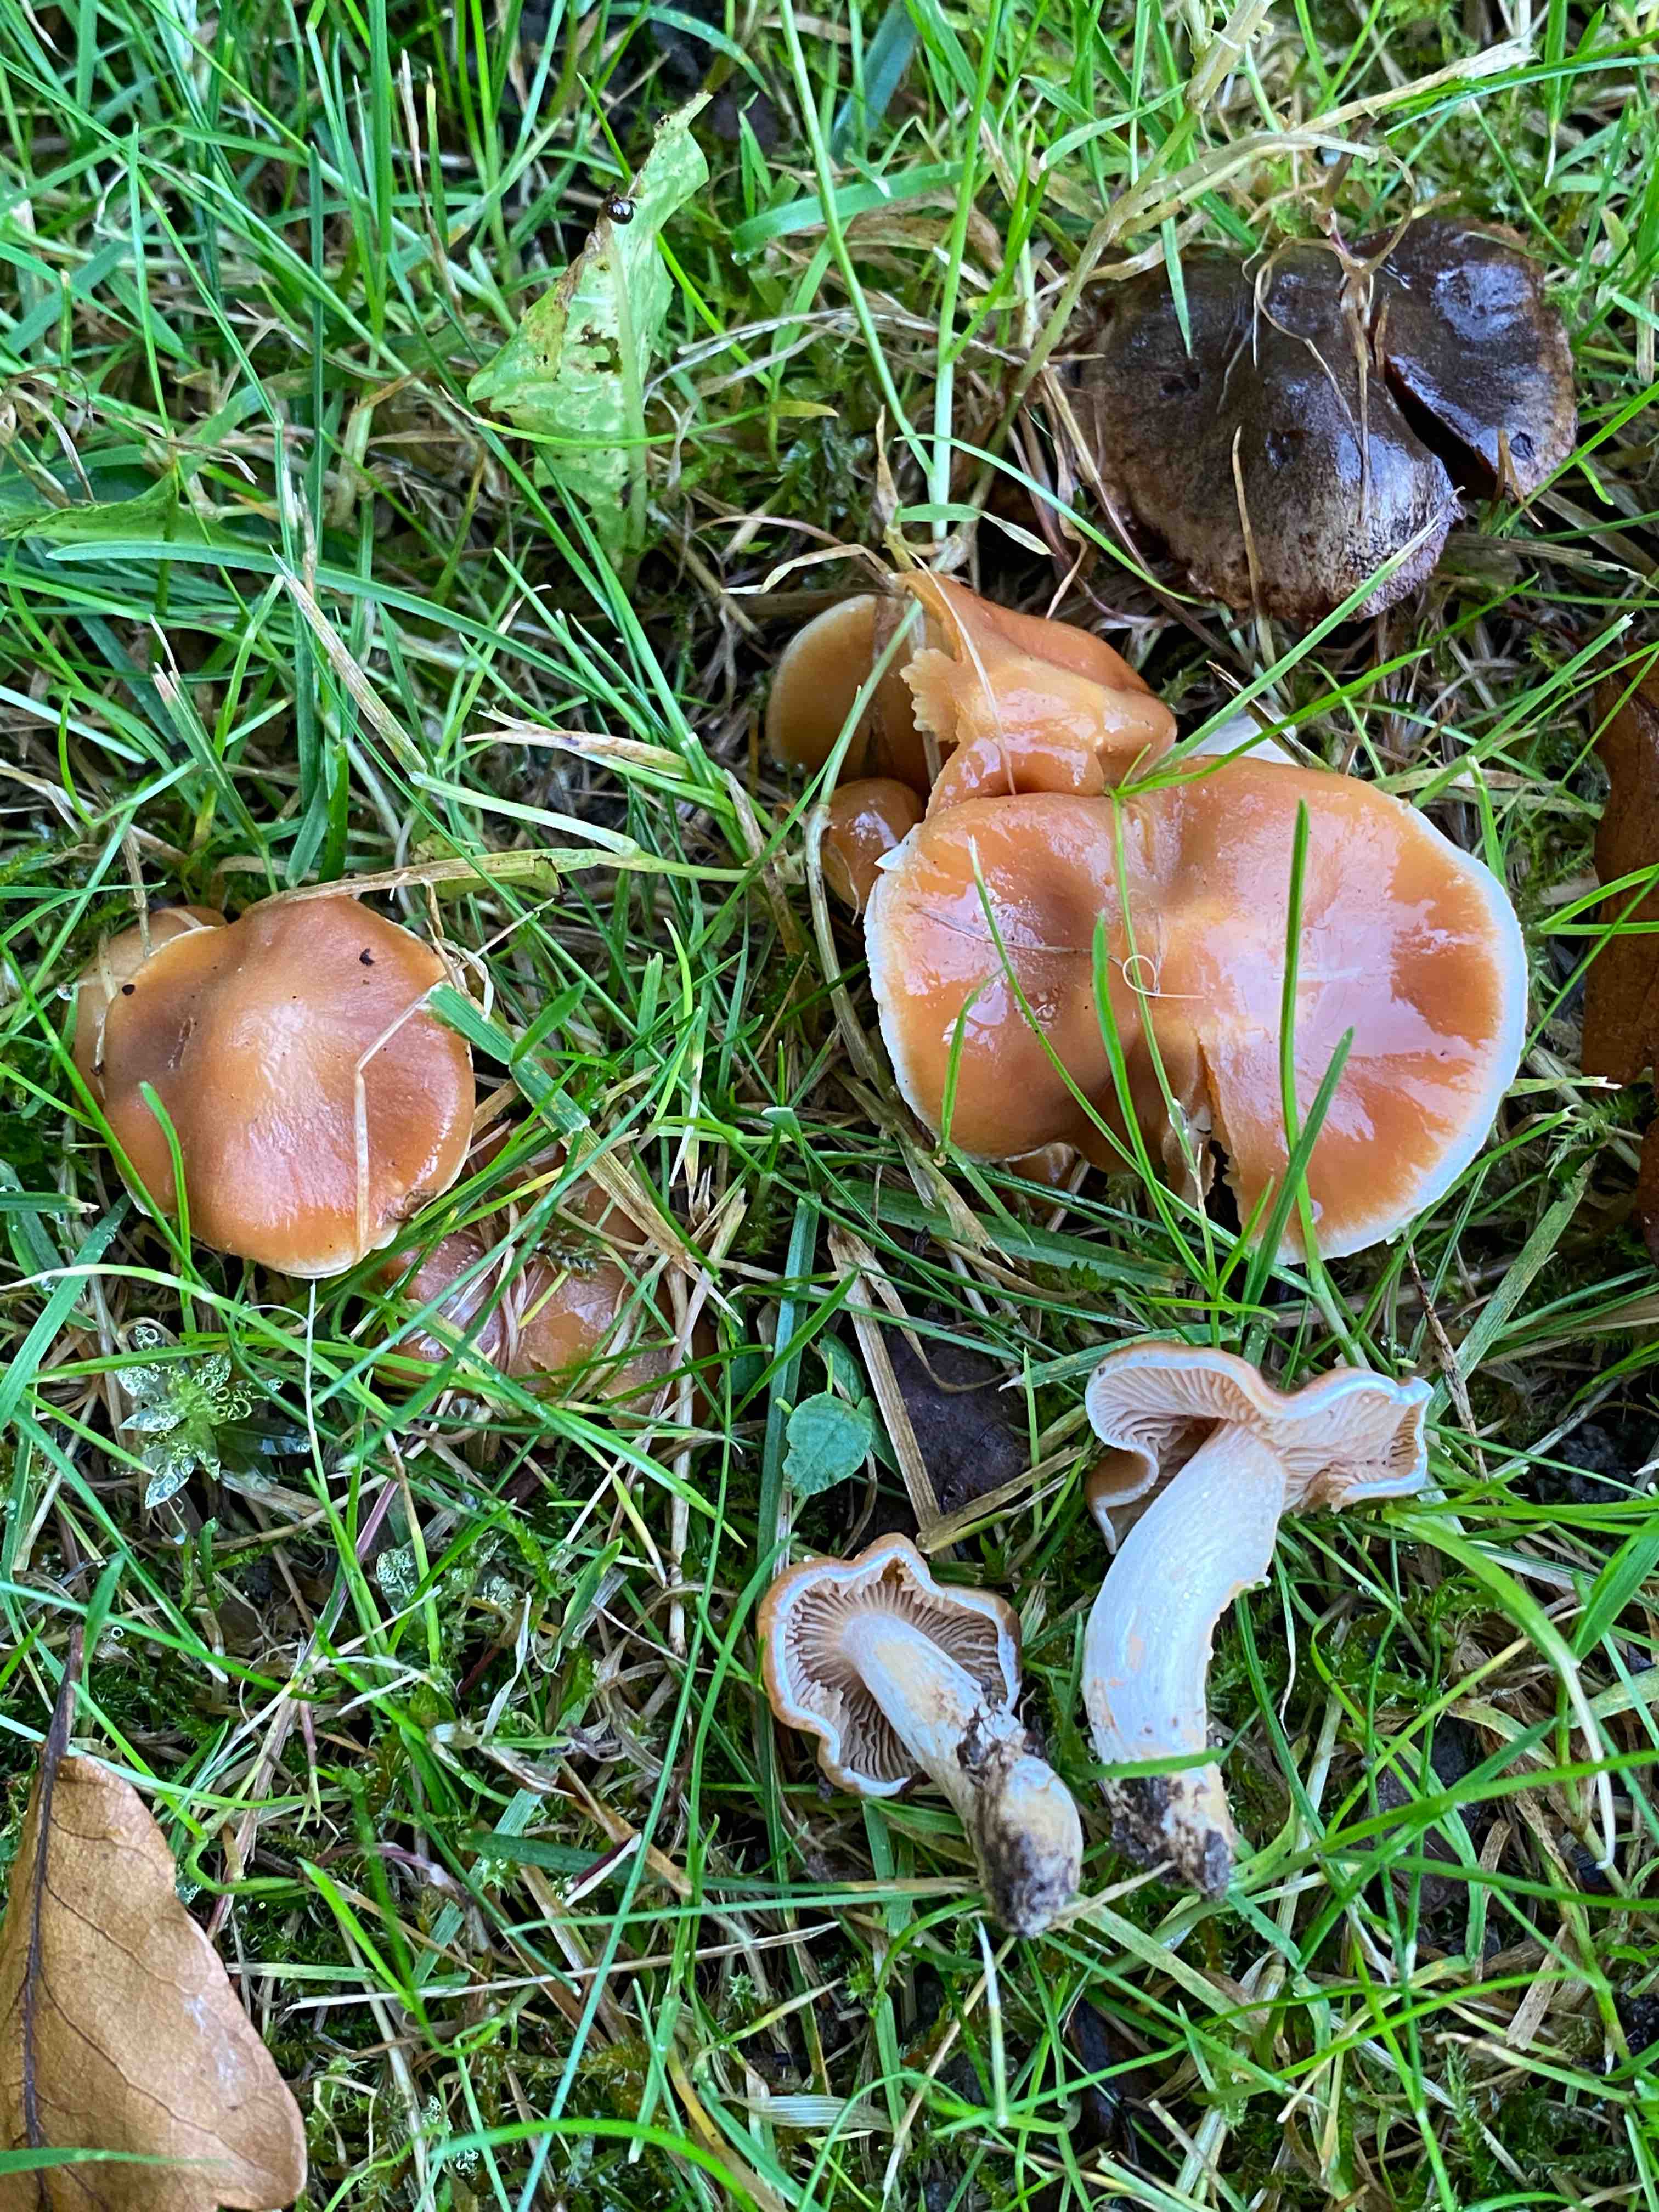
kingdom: Fungi
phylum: Basidiomycota
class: Agaricomycetes
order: Agaricales
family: Cortinariaceae
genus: Cortinarius
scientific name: Cortinarius
